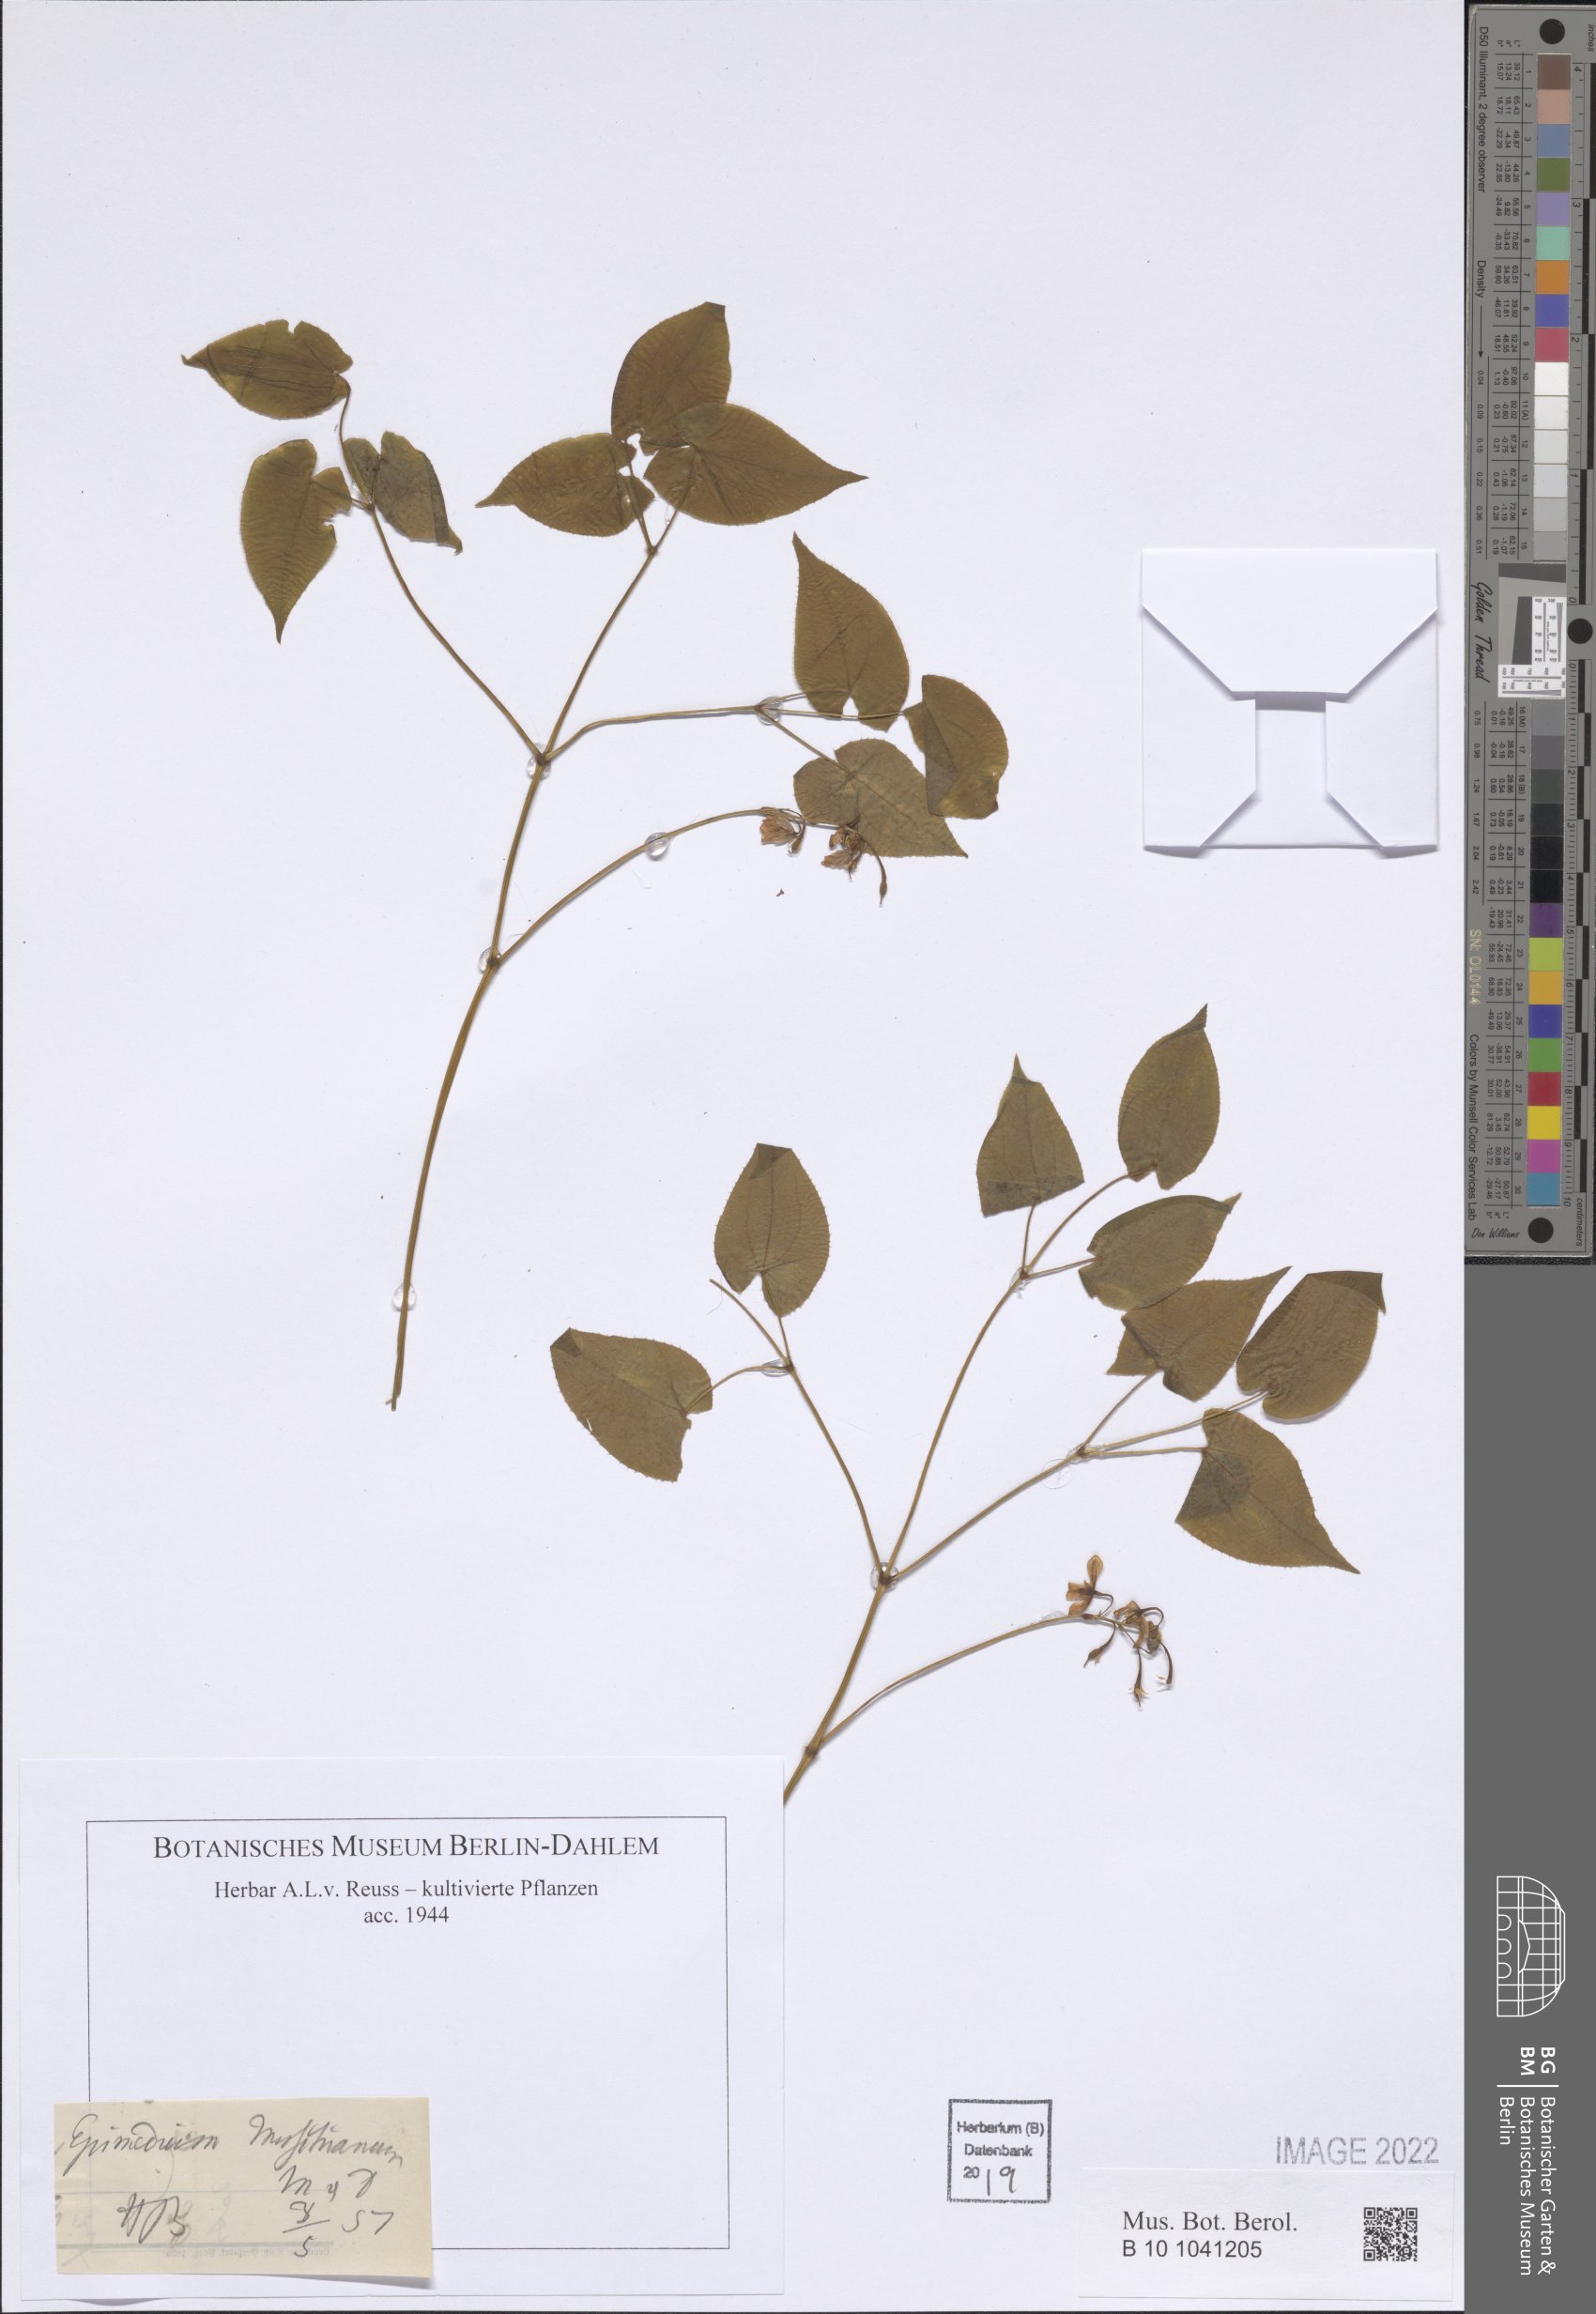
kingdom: Plantae
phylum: Tracheophyta
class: Magnoliopsida
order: Ranunculales
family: Berberidaceae
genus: Epimedium
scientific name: Epimedium grandiflorum
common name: Barrenwort
